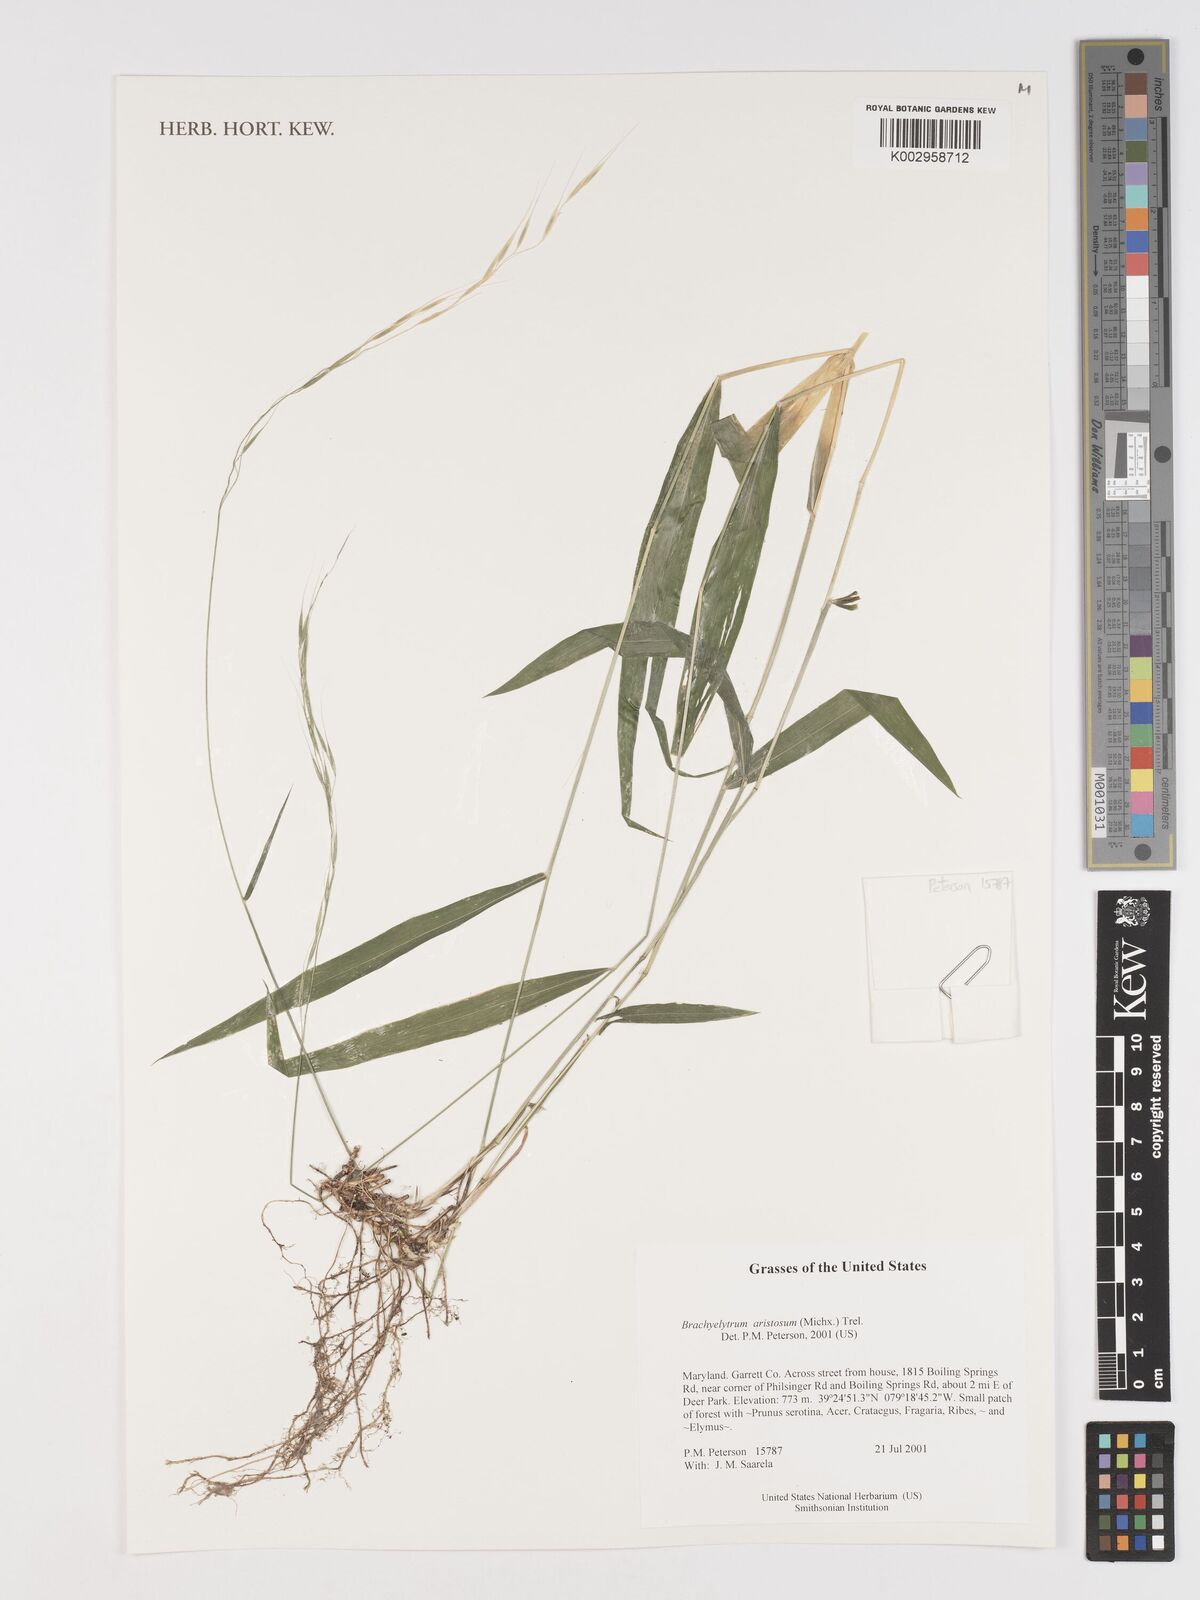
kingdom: Plantae
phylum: Tracheophyta
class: Liliopsida
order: Poales
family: Poaceae
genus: Brachyelytrum
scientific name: Brachyelytrum aristosum
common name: Northern shorthusk
